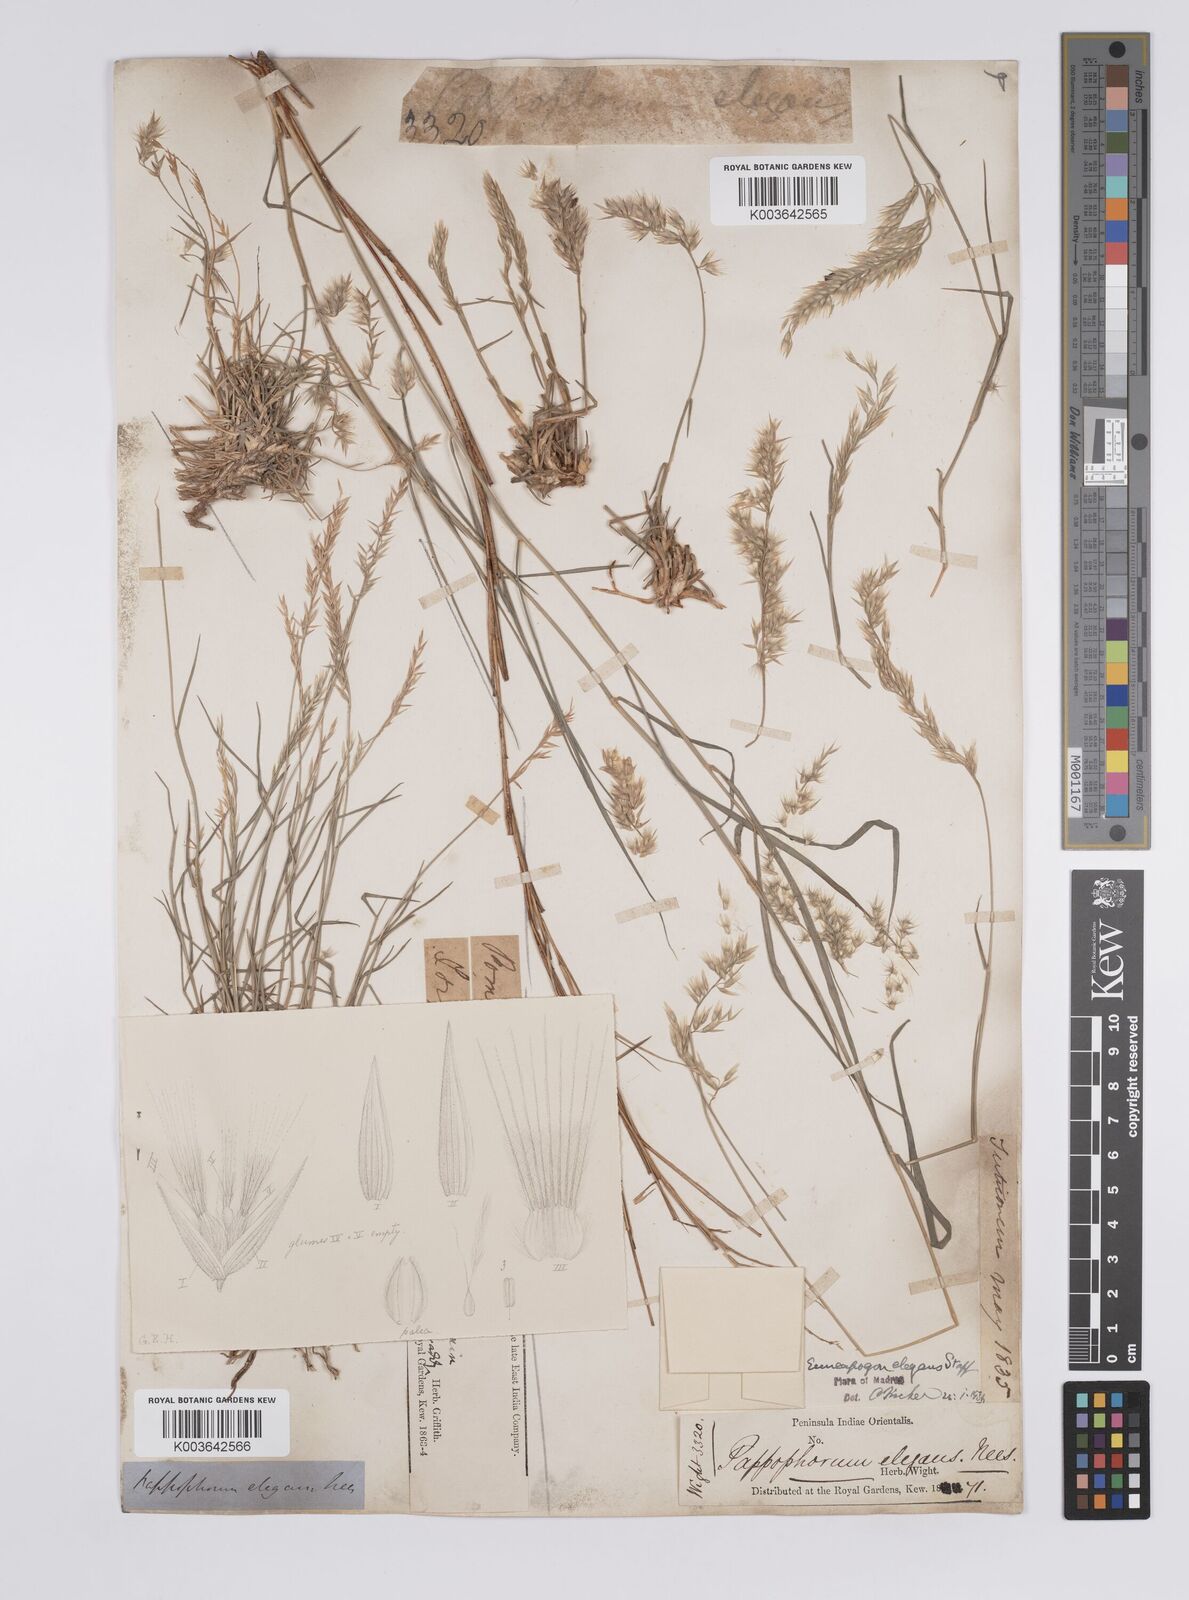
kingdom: Plantae
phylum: Tracheophyta
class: Liliopsida
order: Poales
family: Poaceae
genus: Enneapogon
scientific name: Enneapogon persicus
